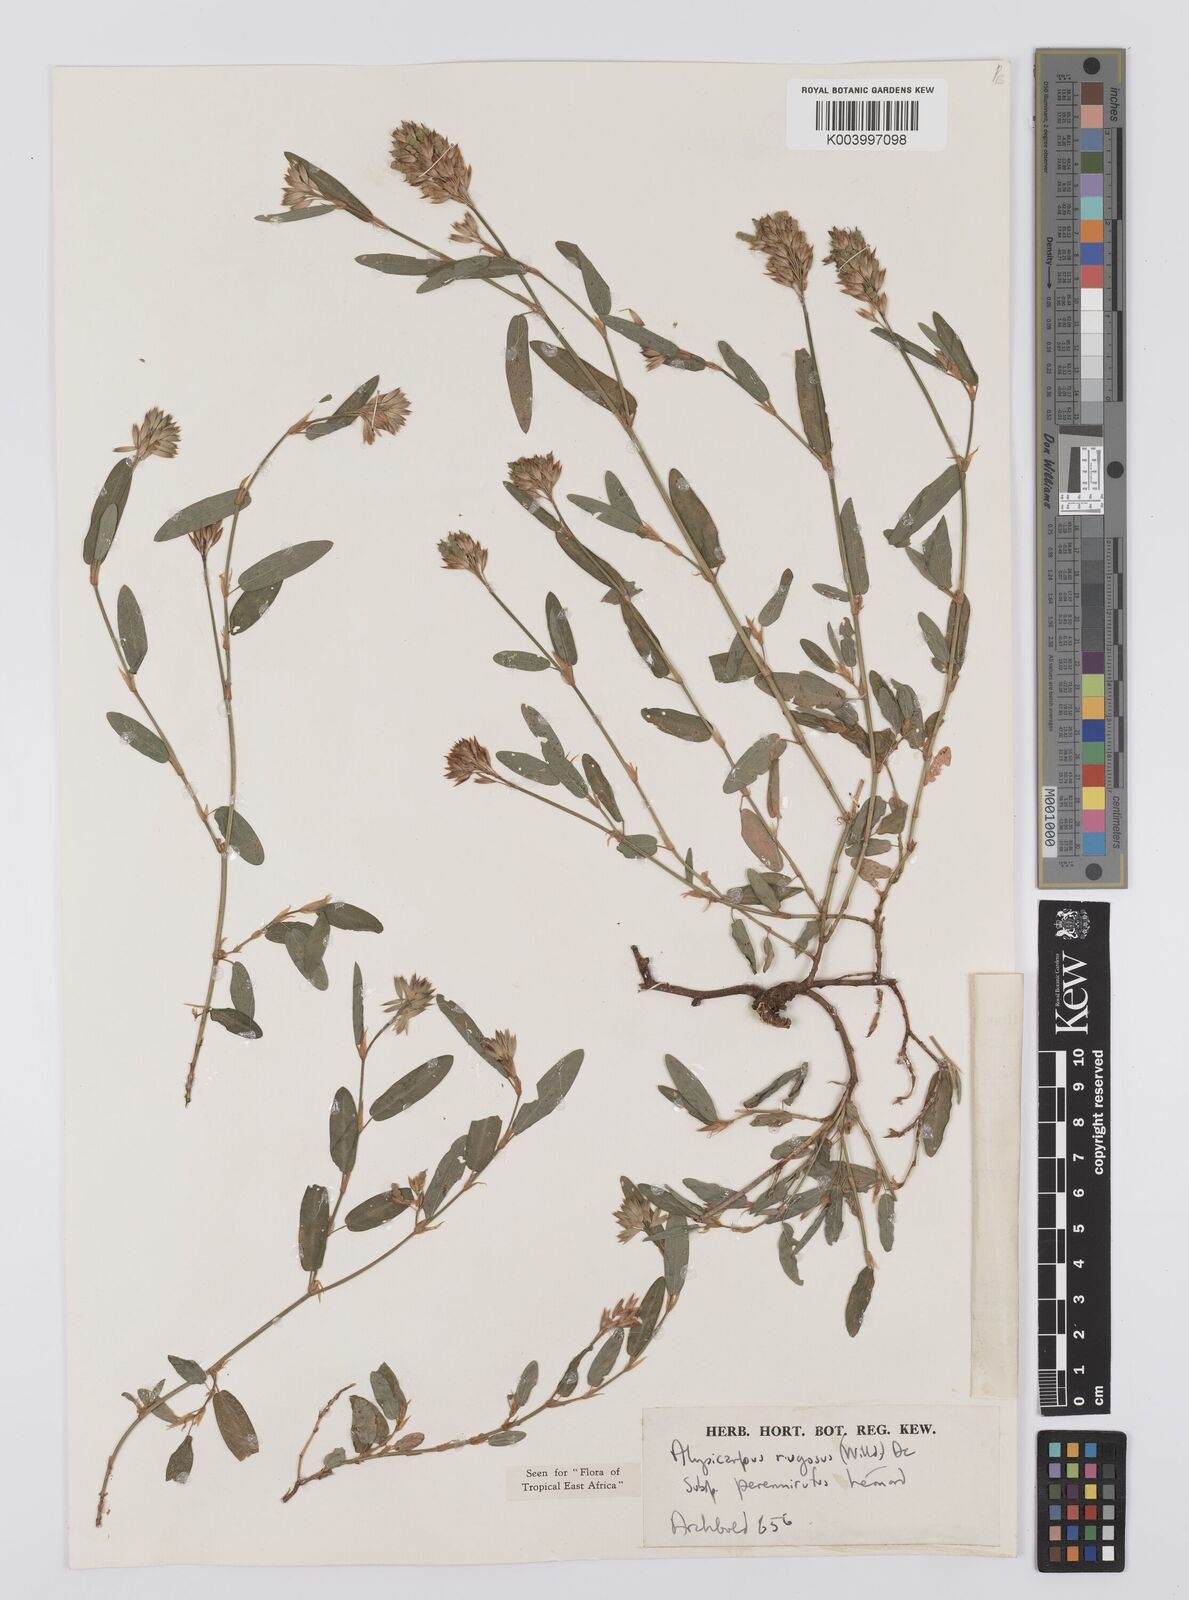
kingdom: Plantae
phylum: Tracheophyta
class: Magnoliopsida
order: Fabales
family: Fabaceae
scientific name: Fabaceae
